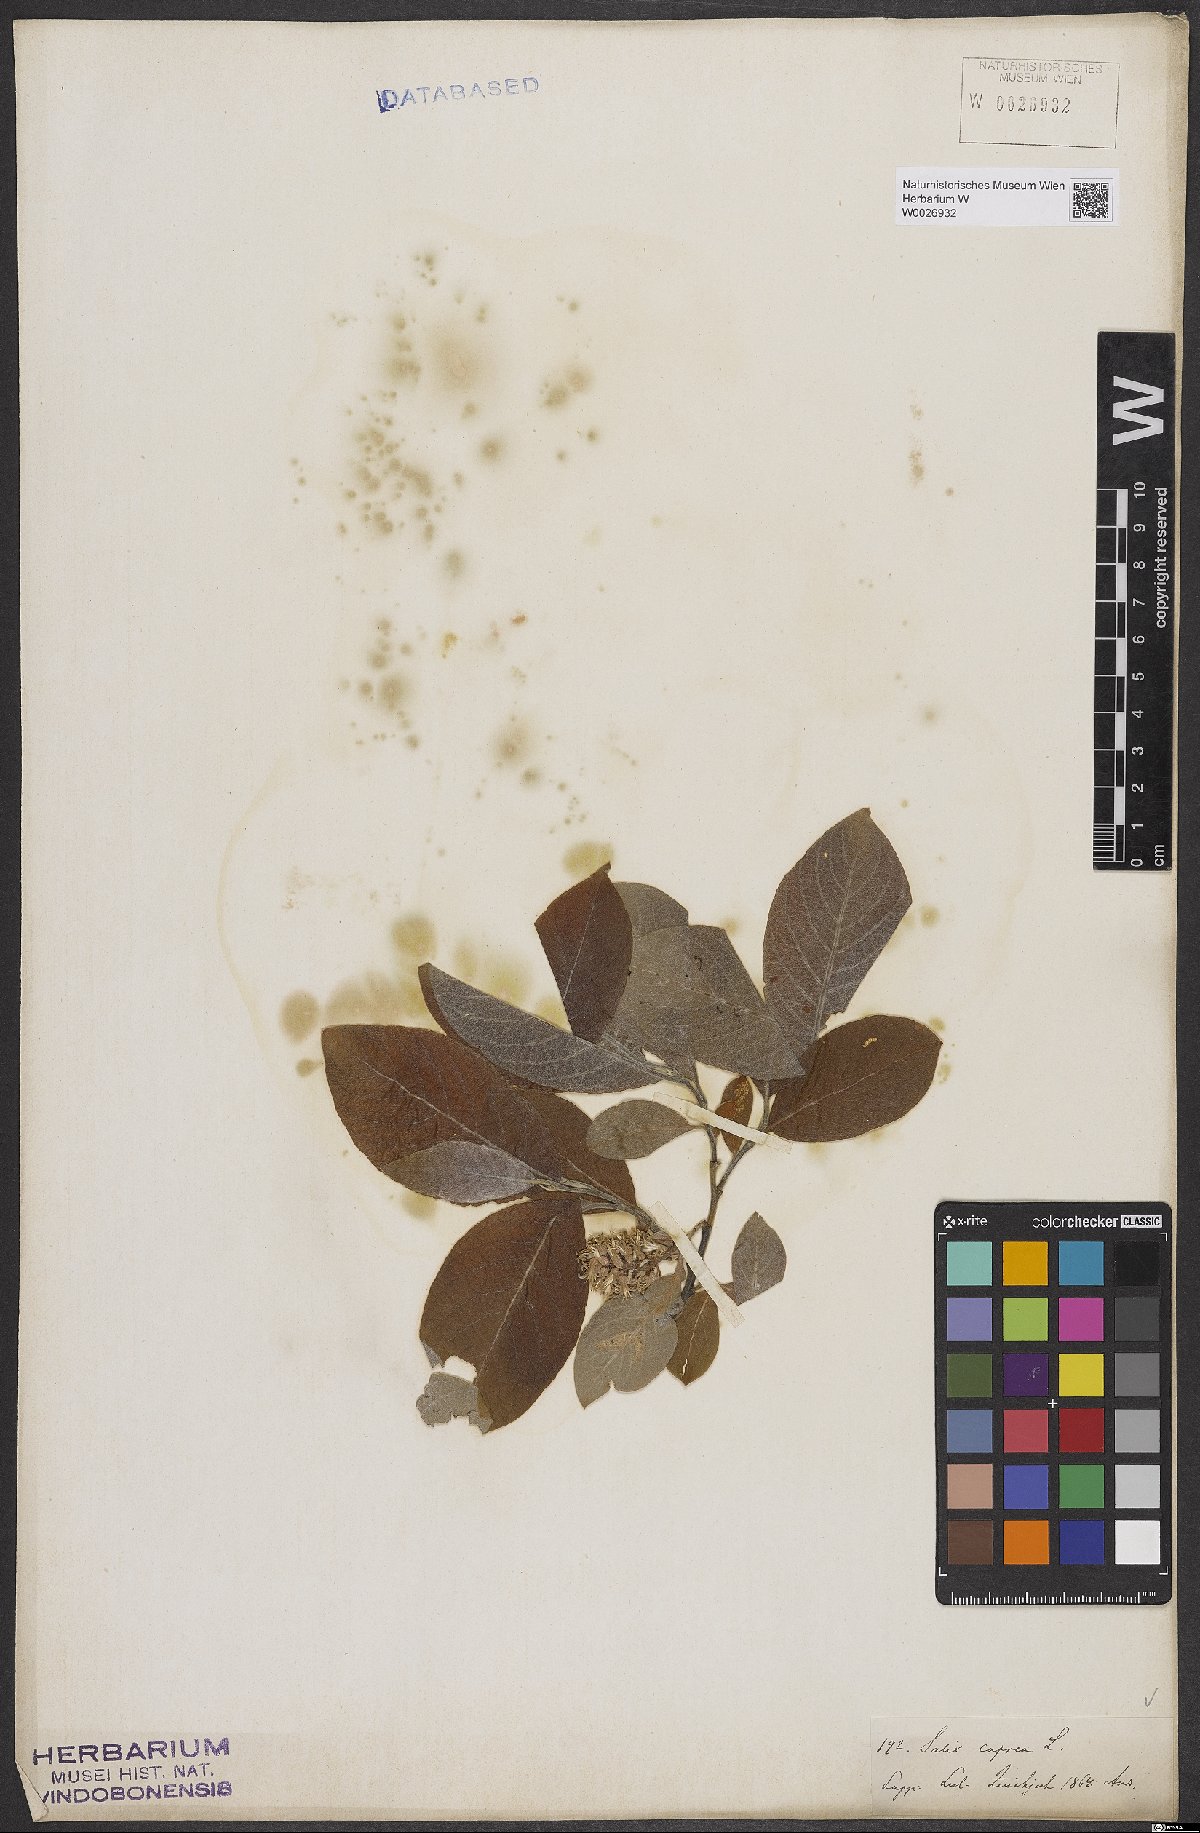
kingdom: Plantae
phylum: Tracheophyta
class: Magnoliopsida
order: Malpighiales
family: Salicaceae
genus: Salix
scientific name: Salix caprea
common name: Goat willow
